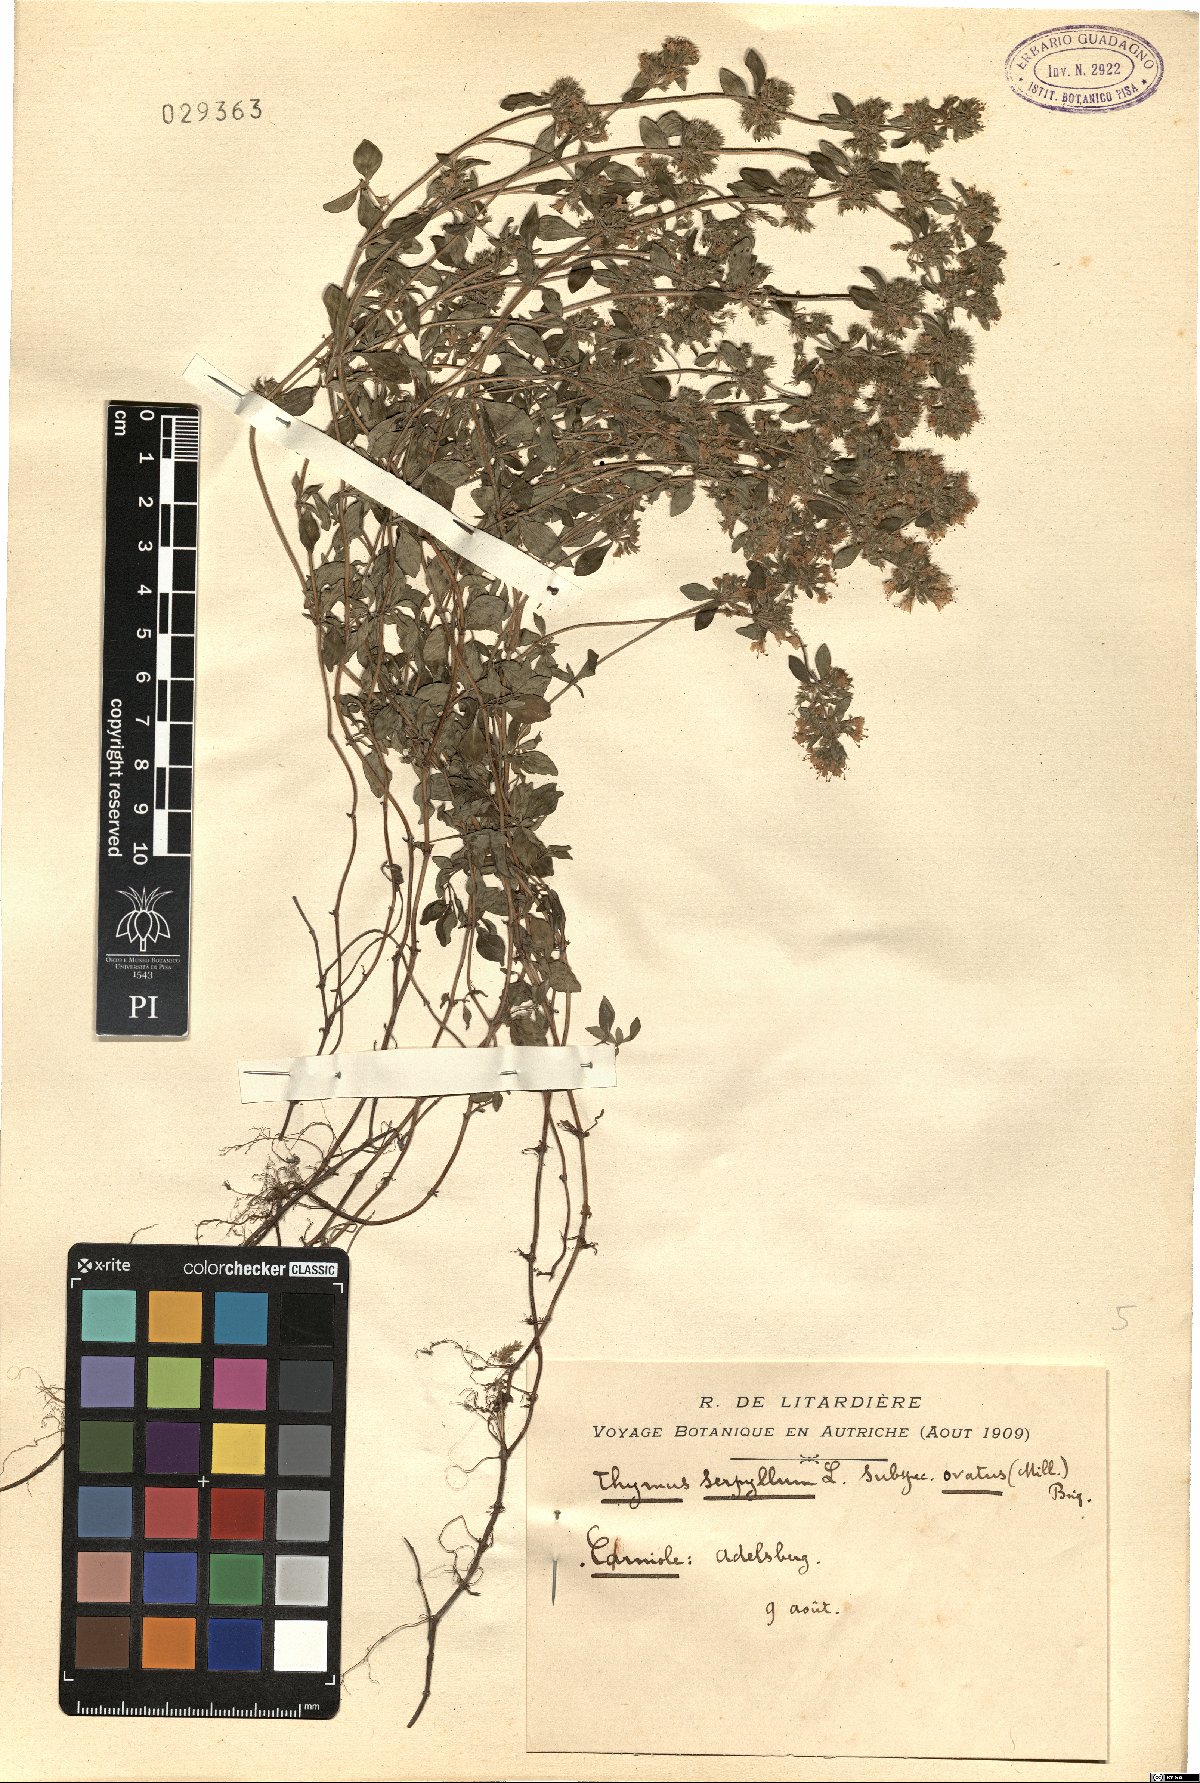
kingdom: Plantae
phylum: Tracheophyta
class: Magnoliopsida
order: Lamiales
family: Lamiaceae
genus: Thymus
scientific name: Thymus pulegioides
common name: Large thyme
